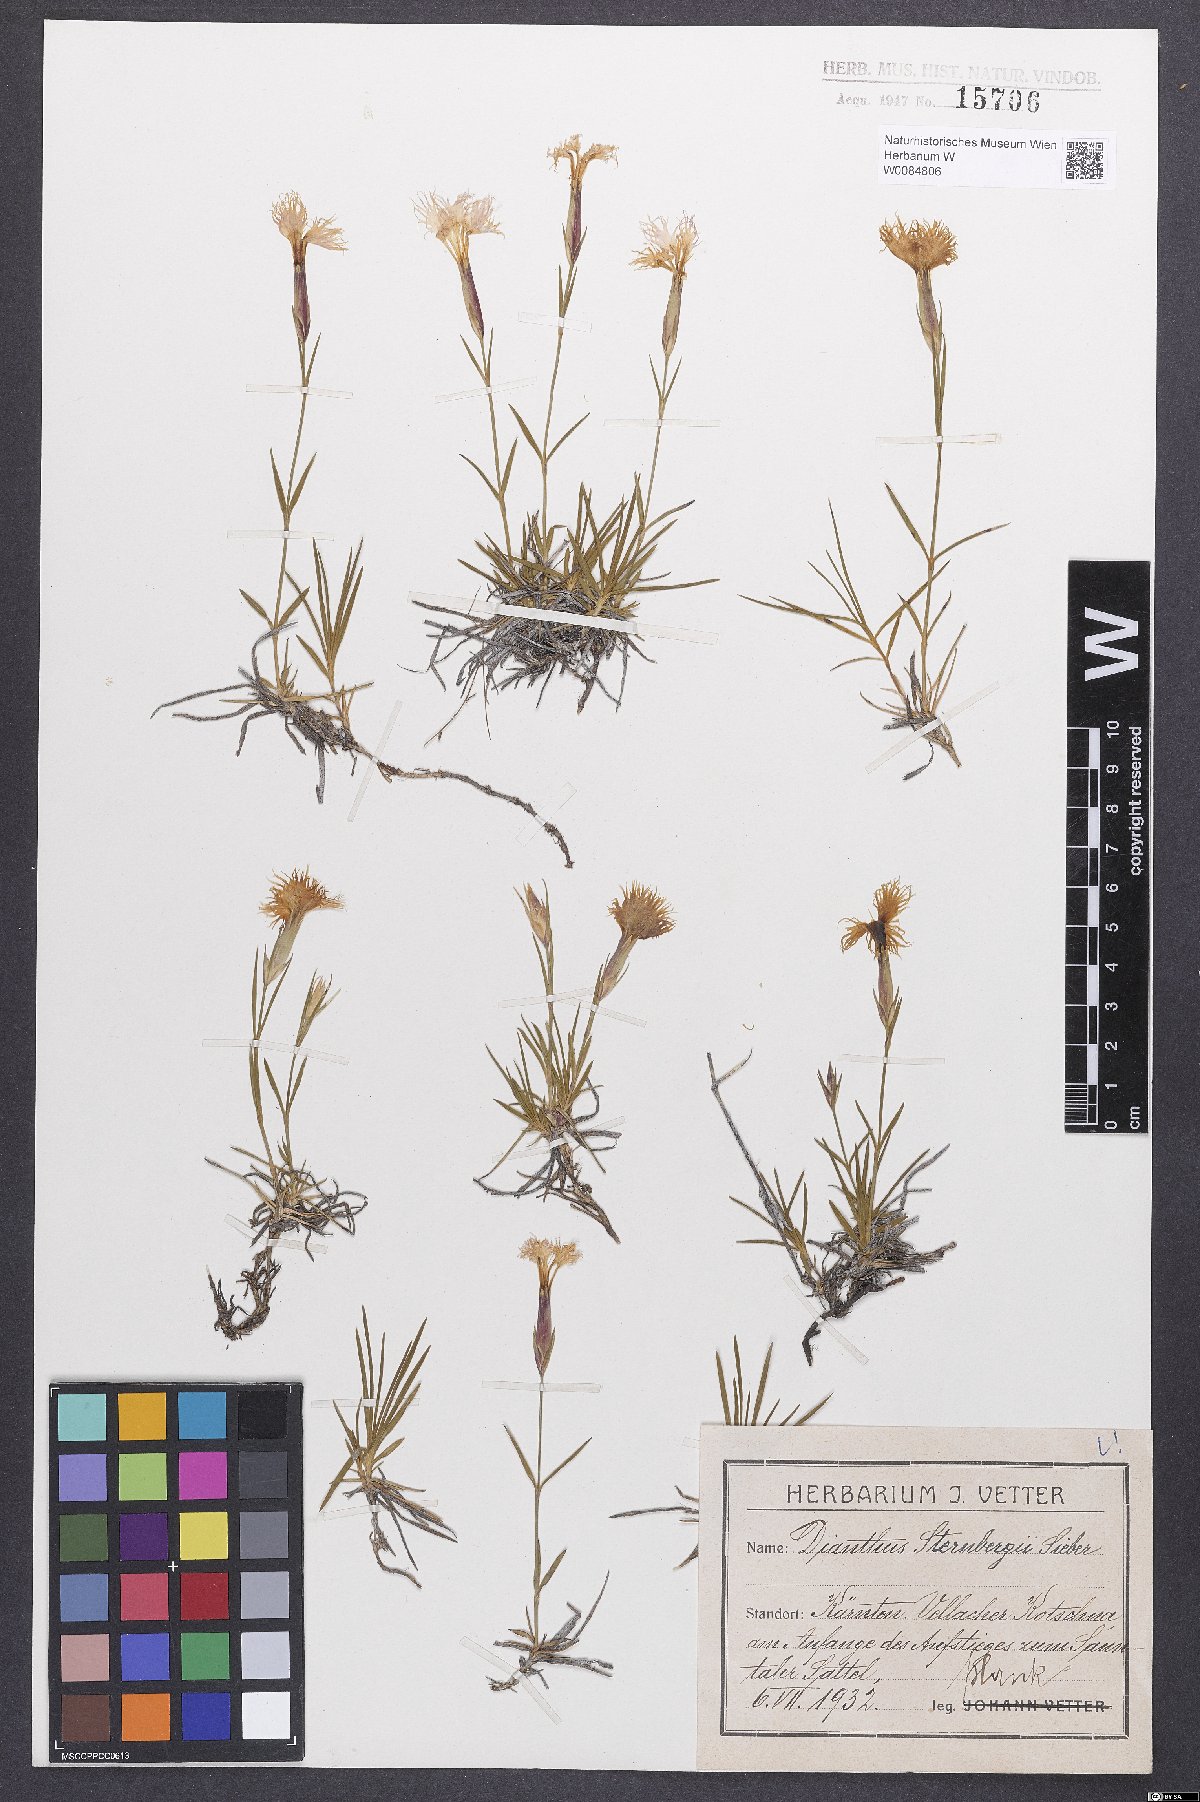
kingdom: Plantae
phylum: Tracheophyta
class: Magnoliopsida
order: Caryophyllales
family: Caryophyllaceae
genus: Dianthus
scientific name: Dianthus monspessulanus
